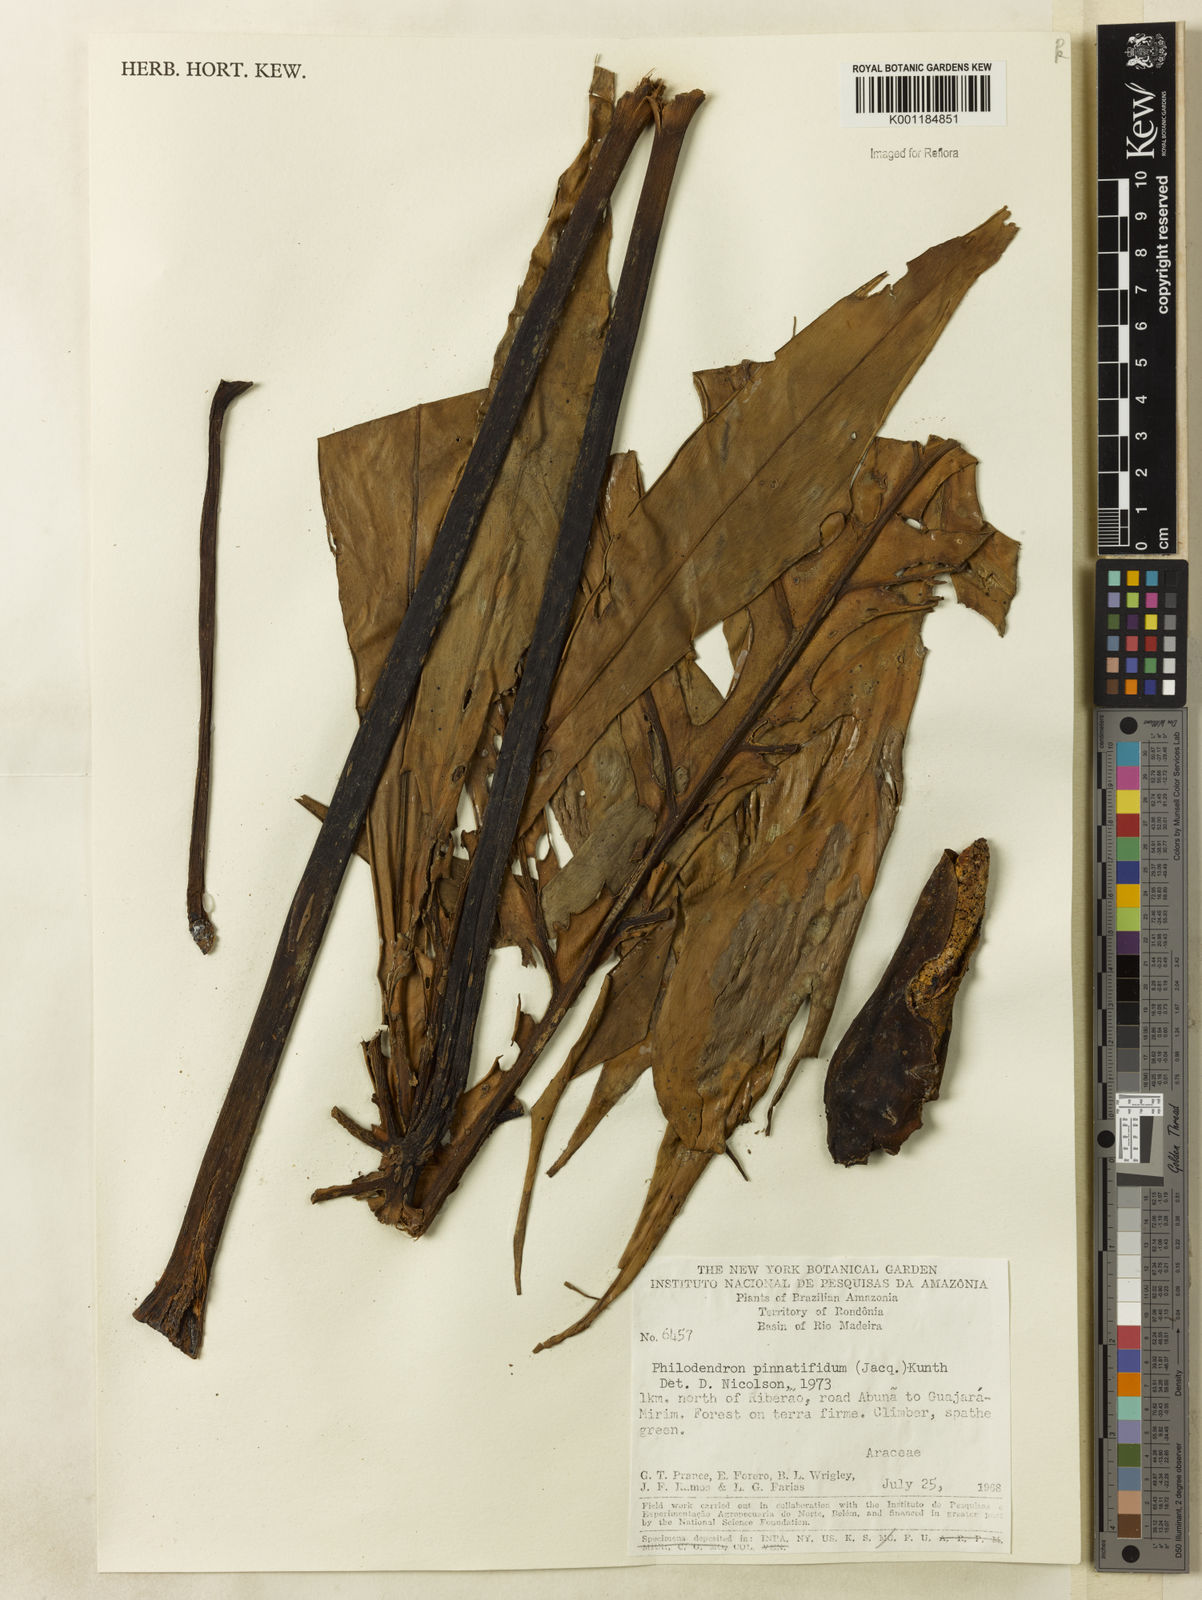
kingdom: Plantae
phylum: Tracheophyta
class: Liliopsida
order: Alismatales
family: Araceae
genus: Philodendron
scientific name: Philodendron pinnatifidum
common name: Comb-leaf philodendron
